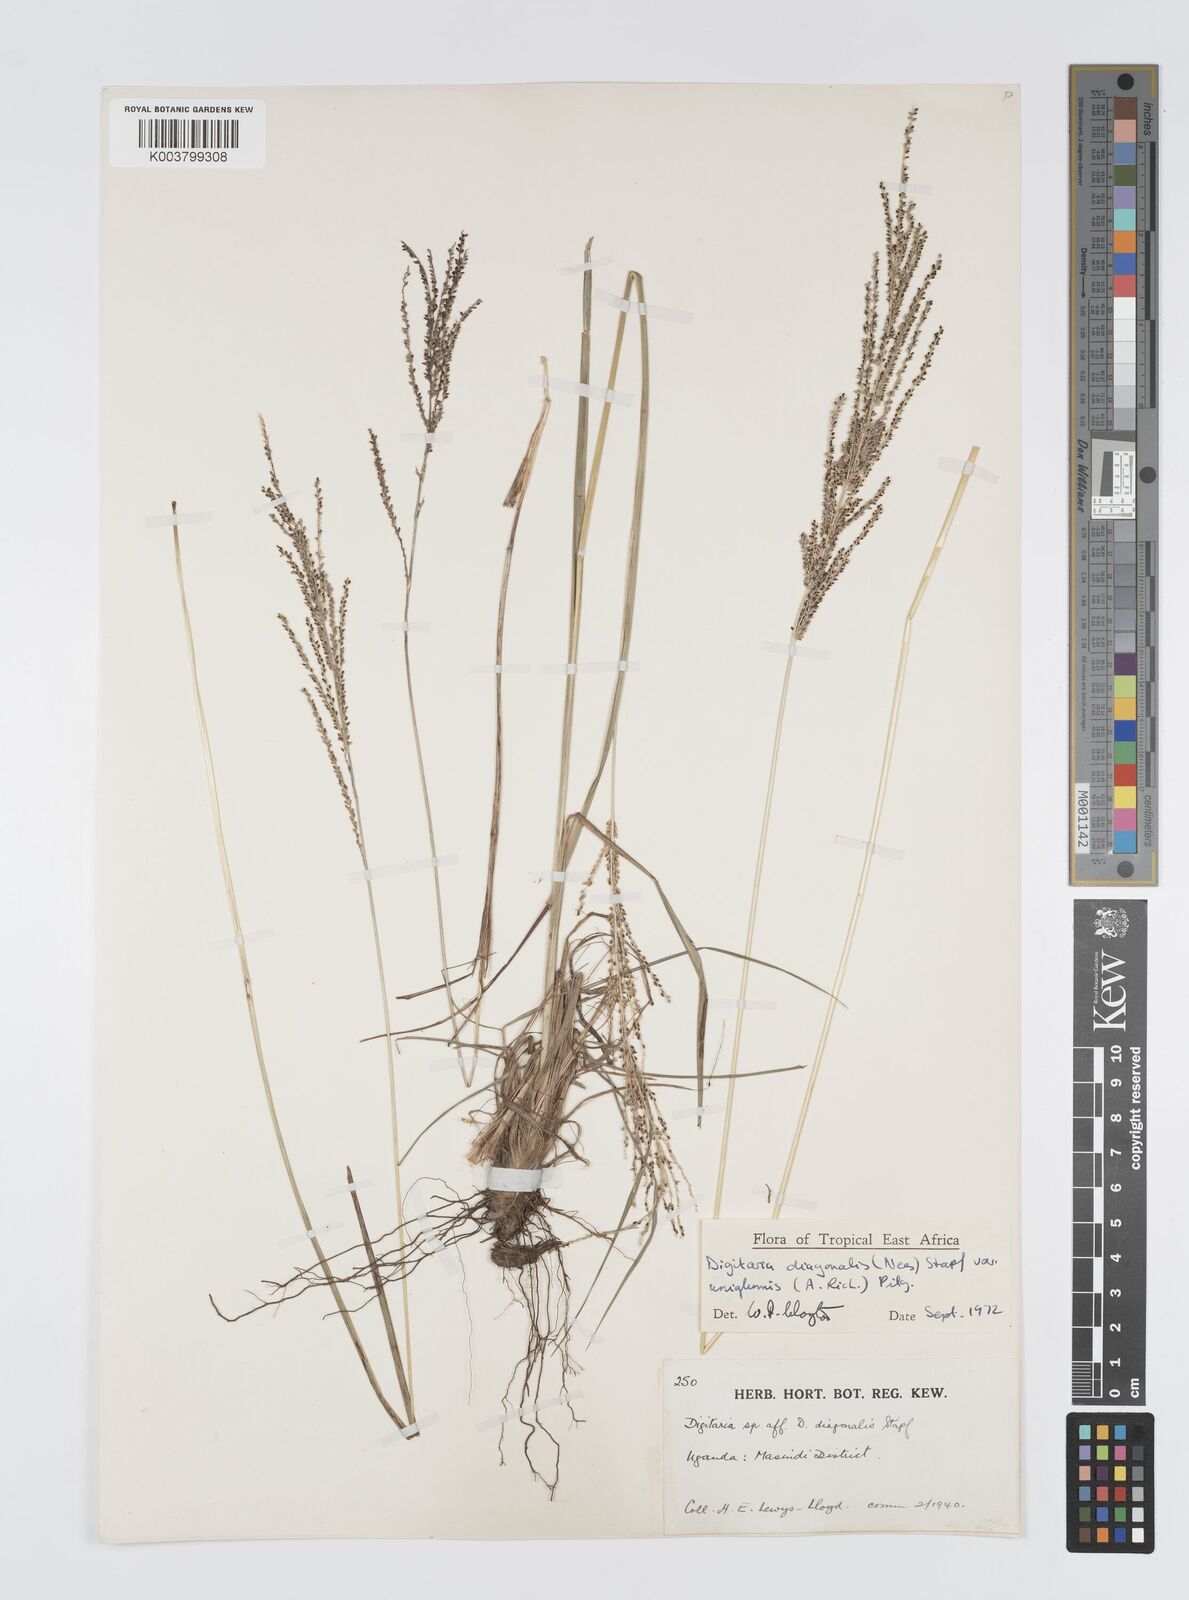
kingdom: Plantae
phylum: Tracheophyta
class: Liliopsida
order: Poales
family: Poaceae
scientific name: Poaceae
